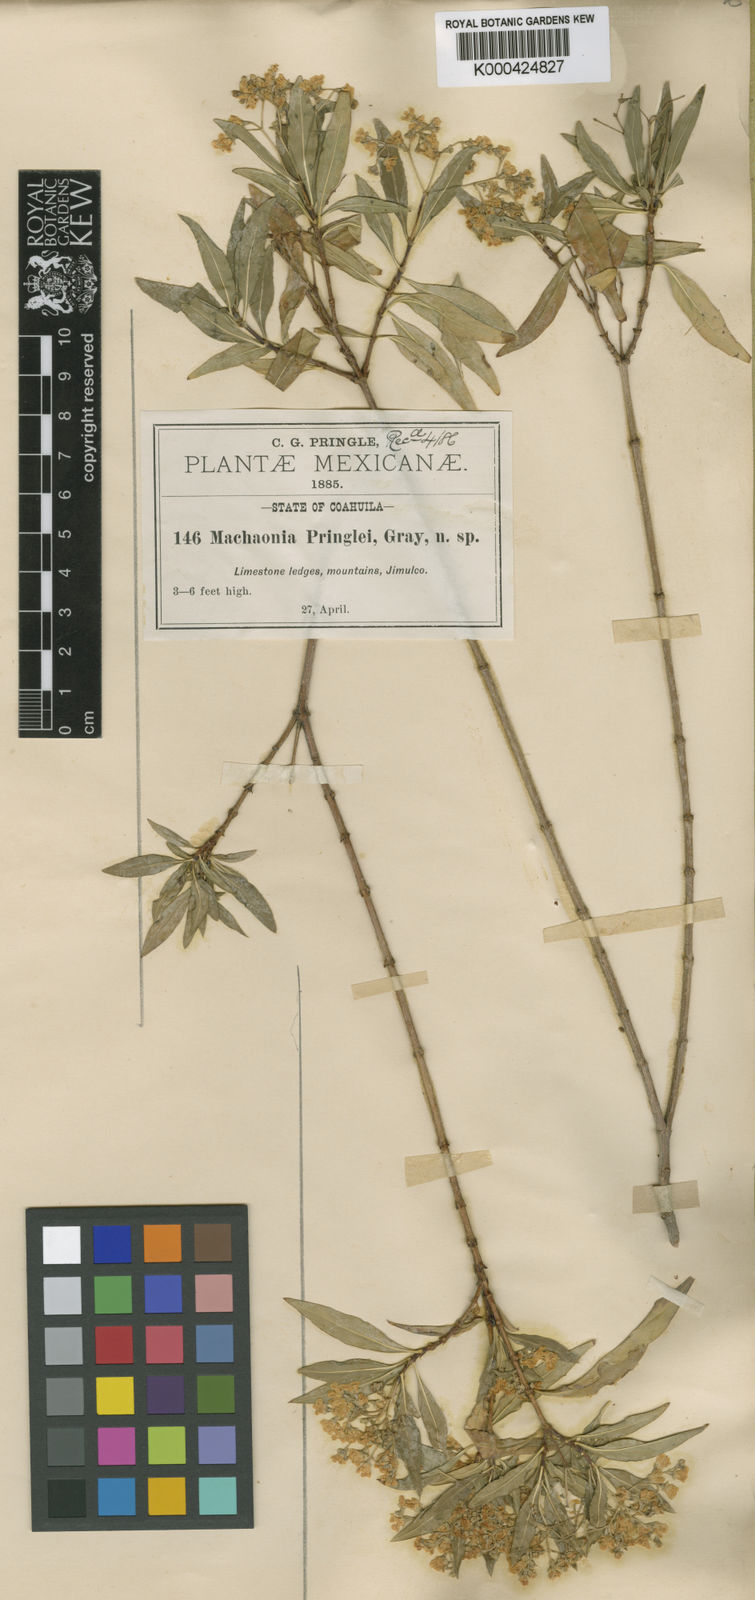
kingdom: Plantae
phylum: Tracheophyta
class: Magnoliopsida
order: Gentianales
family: Rubiaceae
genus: Machaonia
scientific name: Machaonia pringlei
